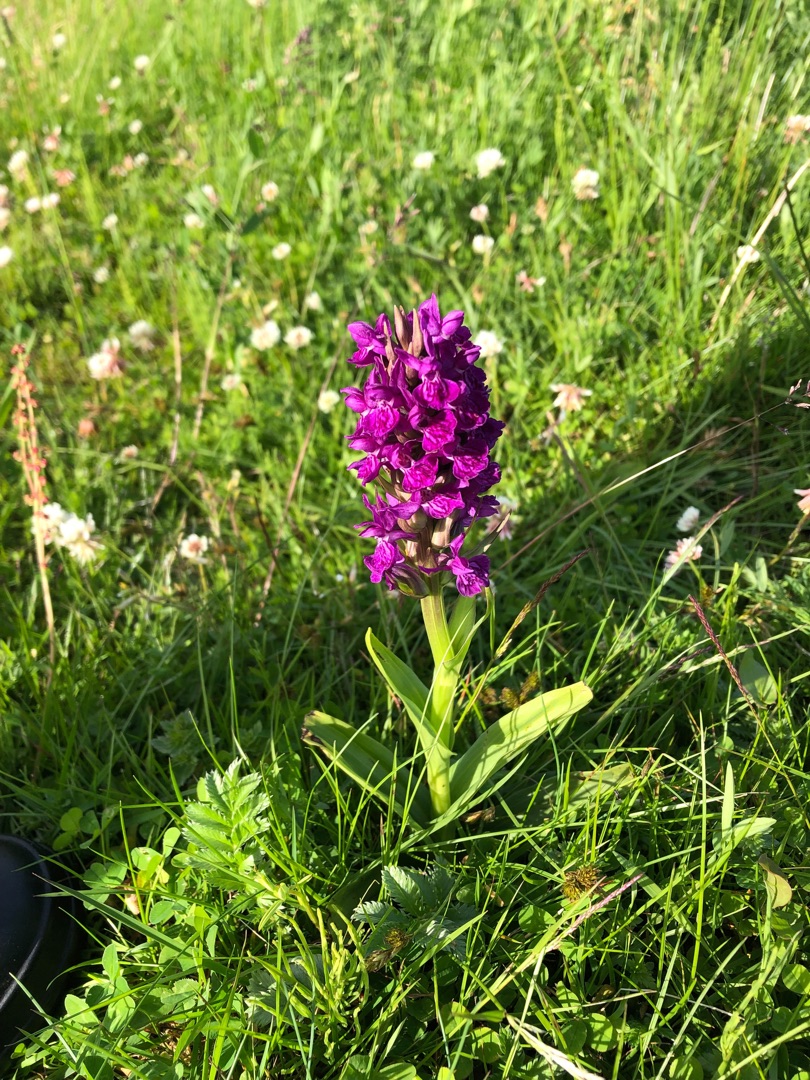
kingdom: Plantae
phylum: Tracheophyta
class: Liliopsida
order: Asparagales
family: Orchidaceae
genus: Dactylorhiza
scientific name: Dactylorhiza majalis
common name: Purpur-gøgeurt
